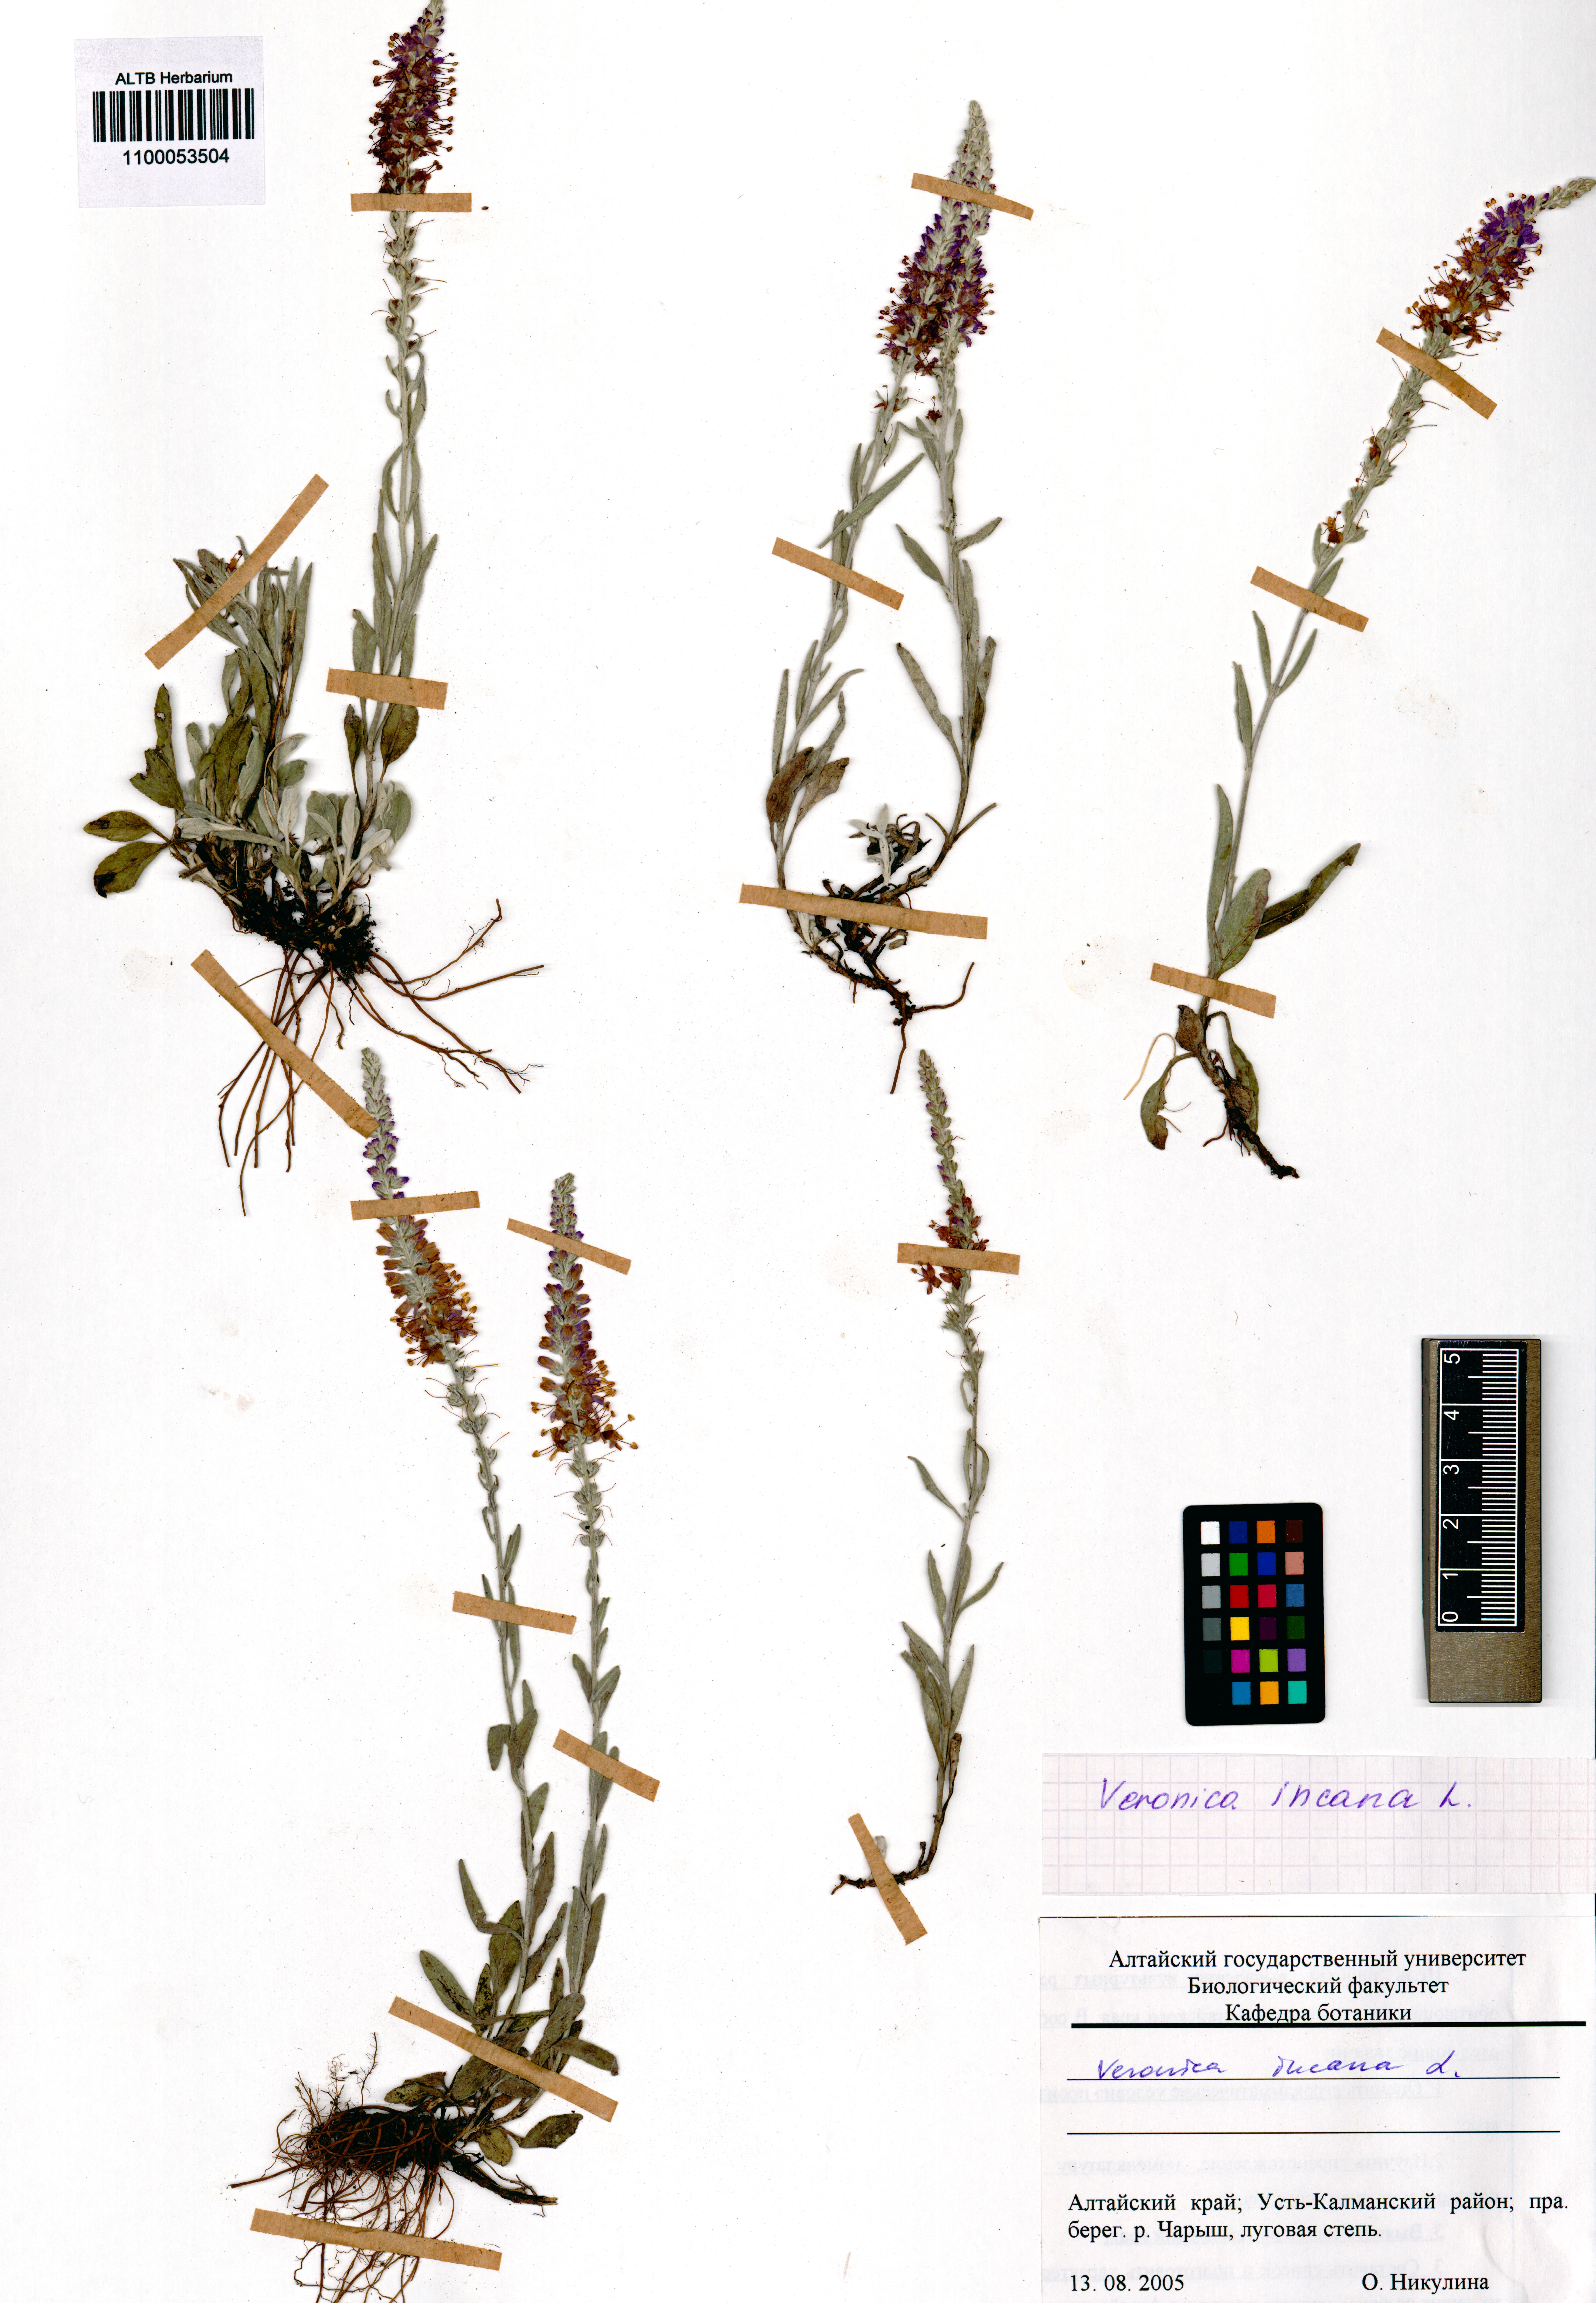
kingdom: Plantae
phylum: Tracheophyta
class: Magnoliopsida
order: Lamiales
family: Plantaginaceae
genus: Veronica
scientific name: Veronica incana
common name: Silver speedwell
